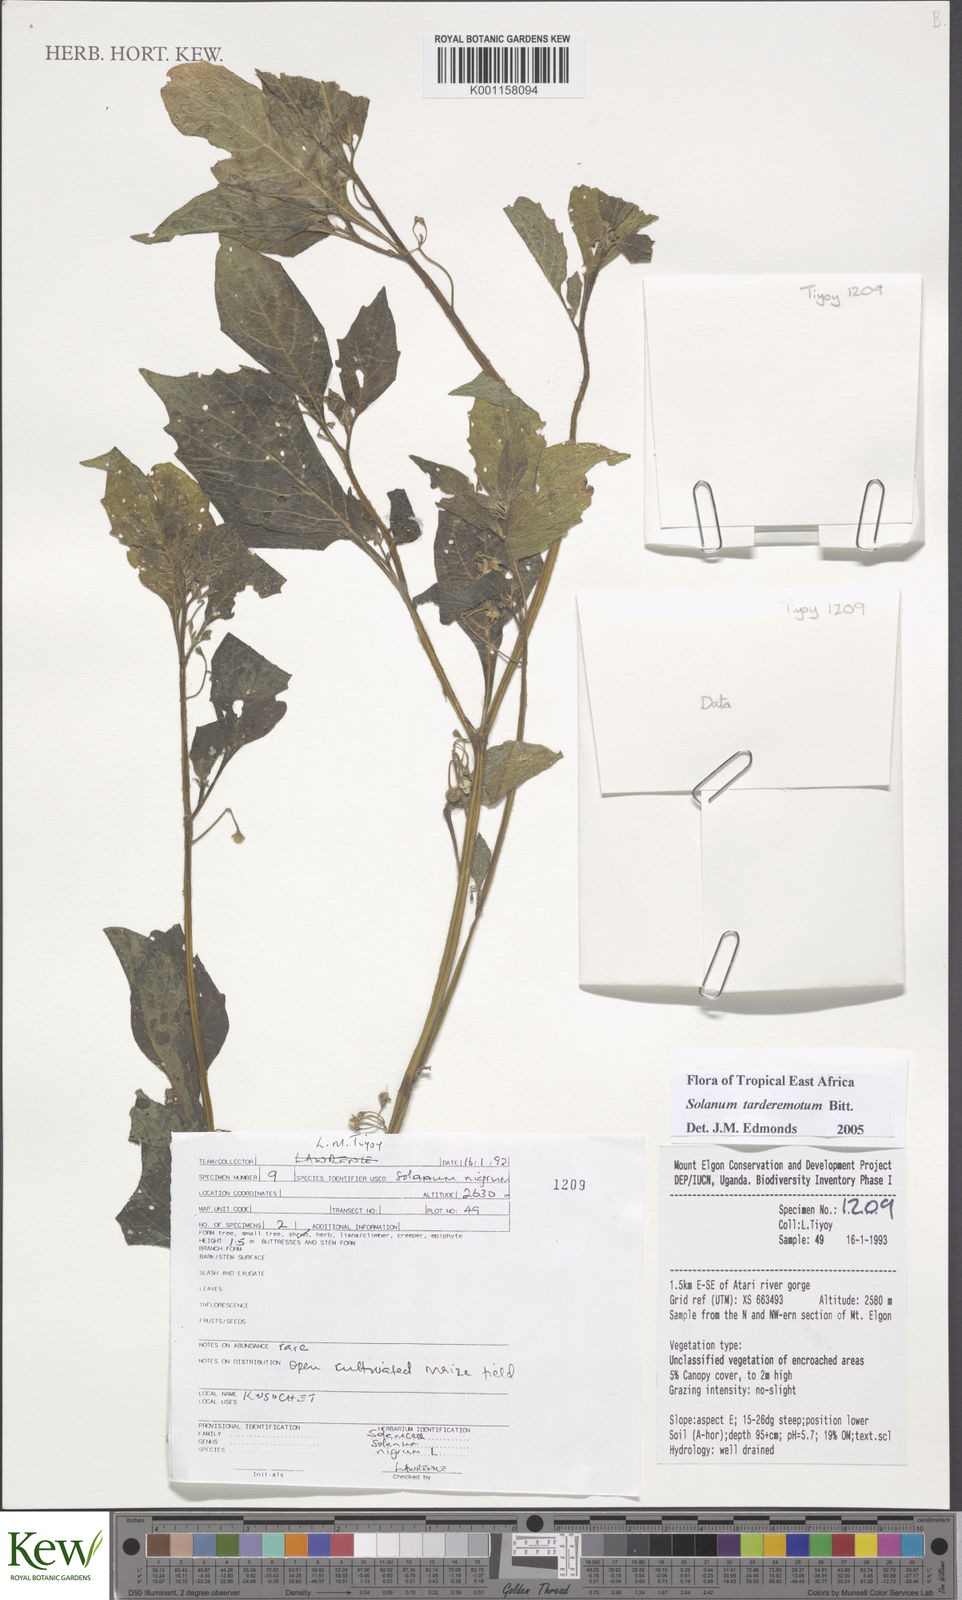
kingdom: Plantae
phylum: Tracheophyta
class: Magnoliopsida
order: Solanales
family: Solanaceae
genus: Solanum
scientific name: Solanum tarderemotum
